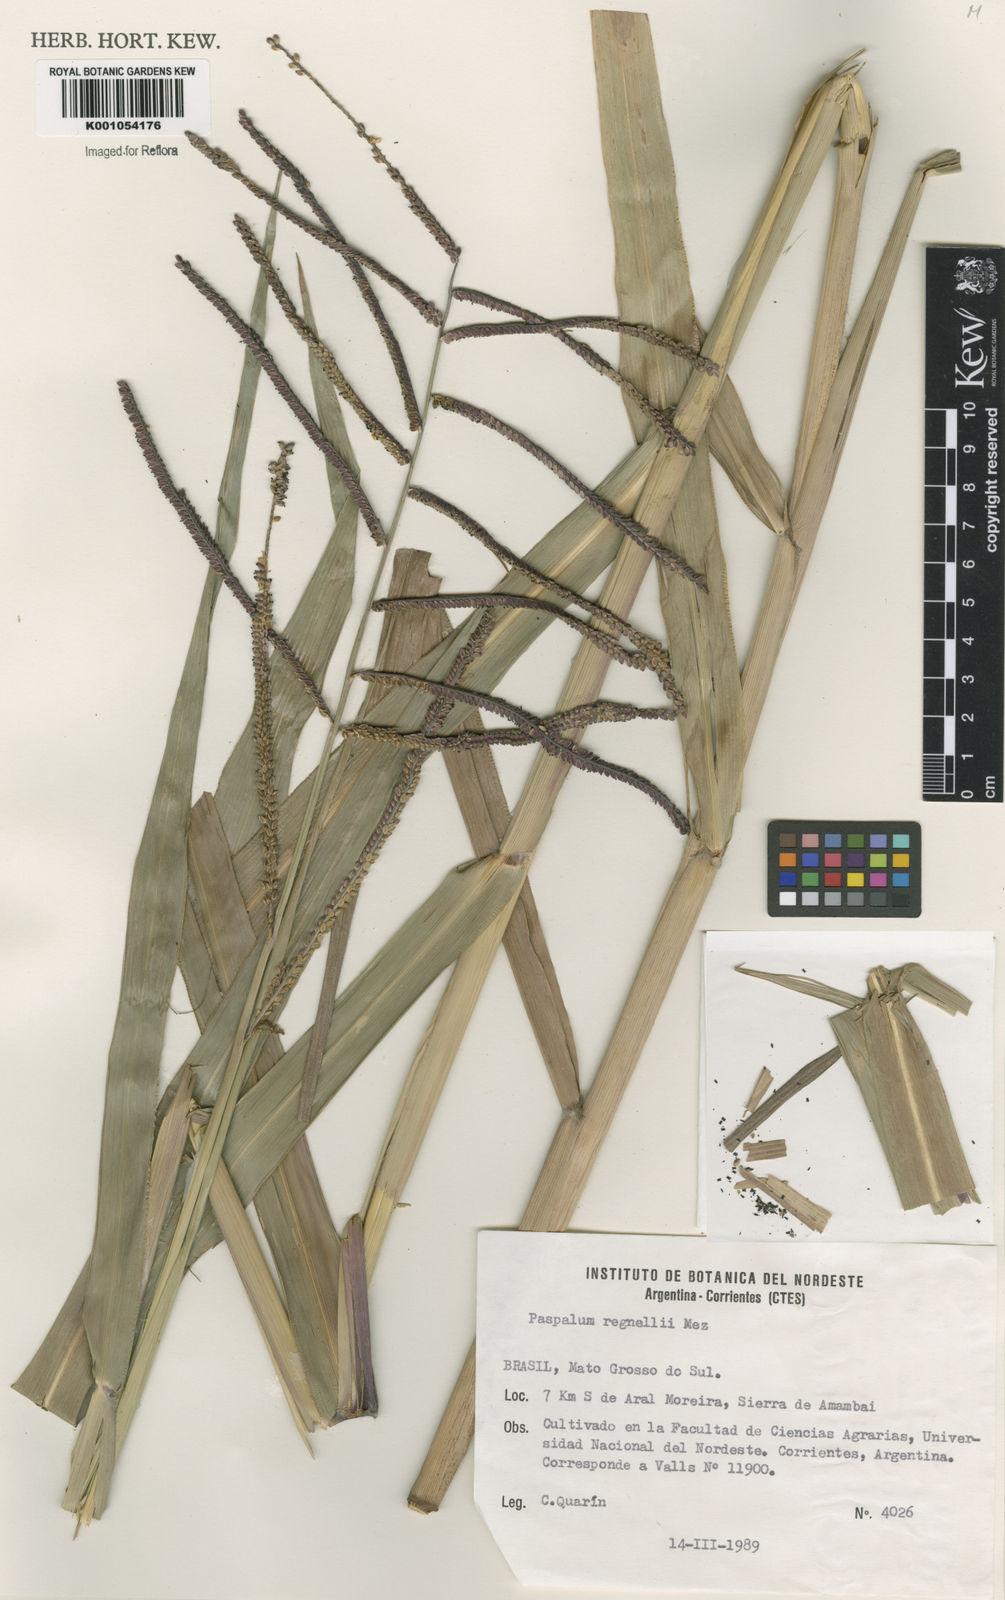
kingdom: Plantae
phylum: Tracheophyta
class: Liliopsida
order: Poales
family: Poaceae
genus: Paspalum
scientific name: Paspalum regnellii
